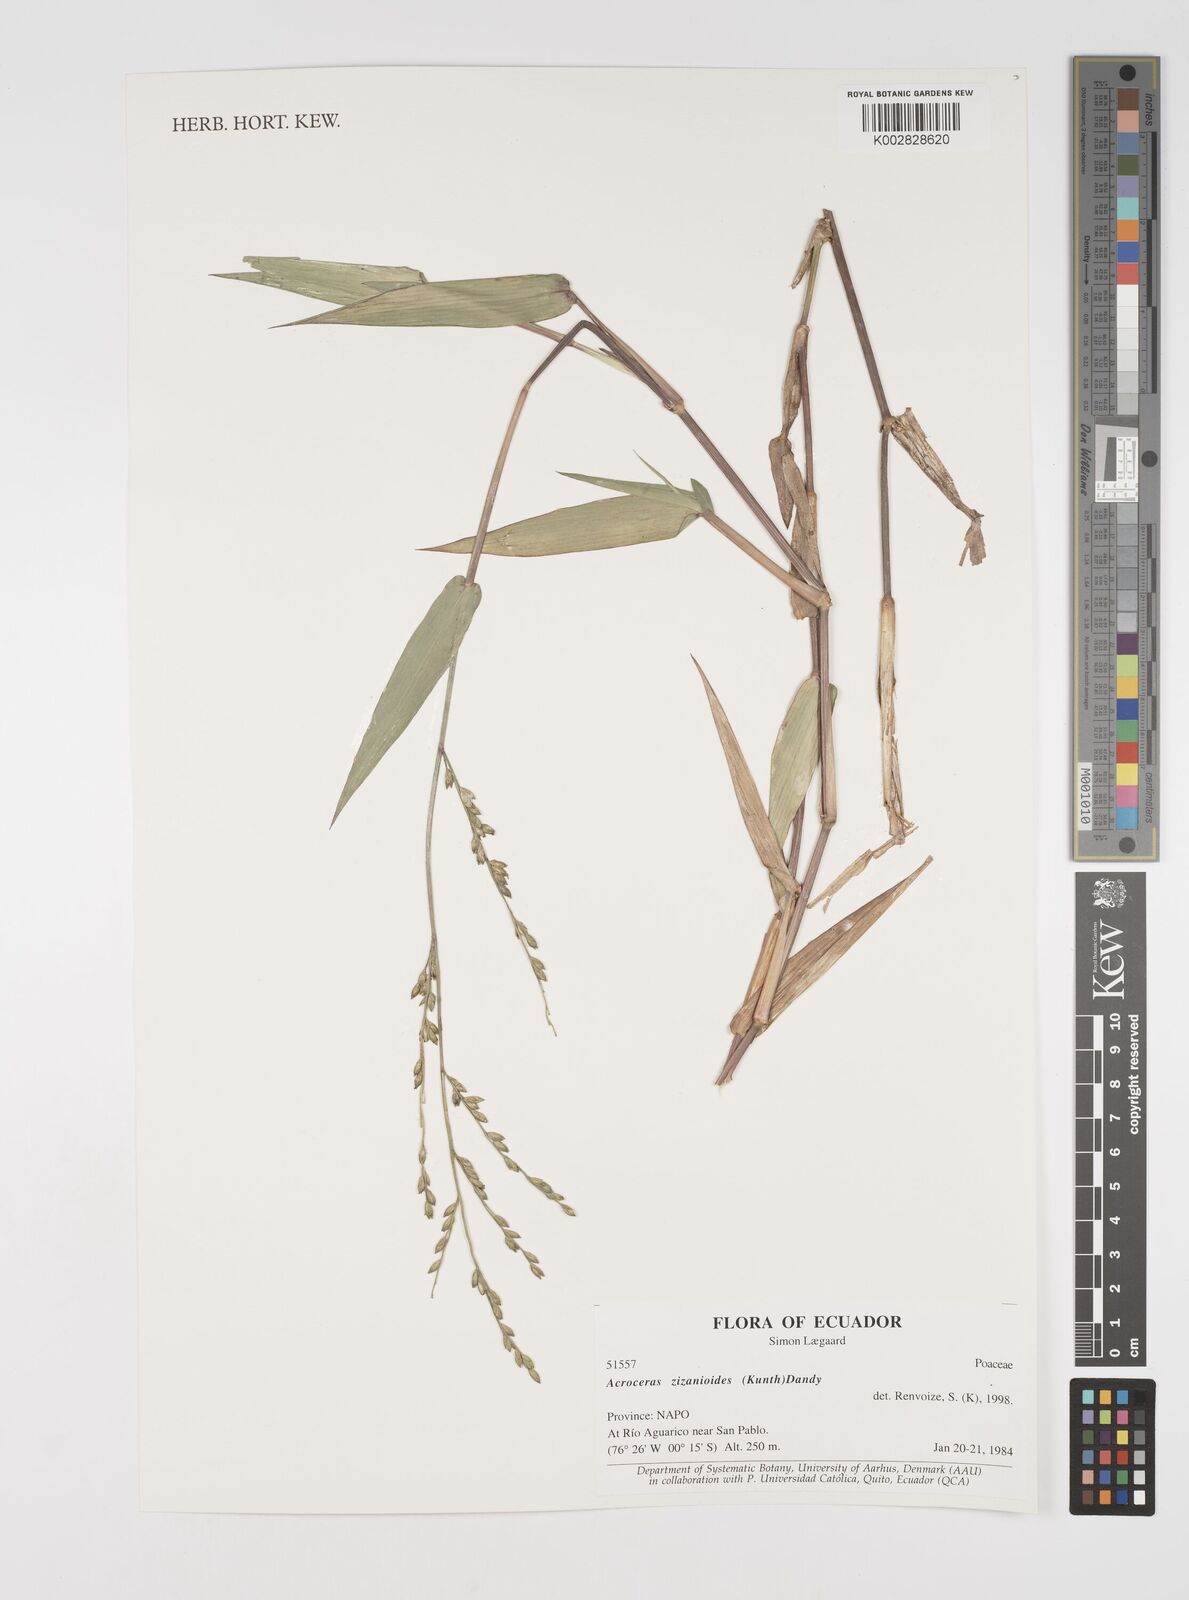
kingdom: Plantae
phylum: Tracheophyta
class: Liliopsida
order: Poales
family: Poaceae
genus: Acroceras
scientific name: Acroceras zizanioides
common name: Oat grass
